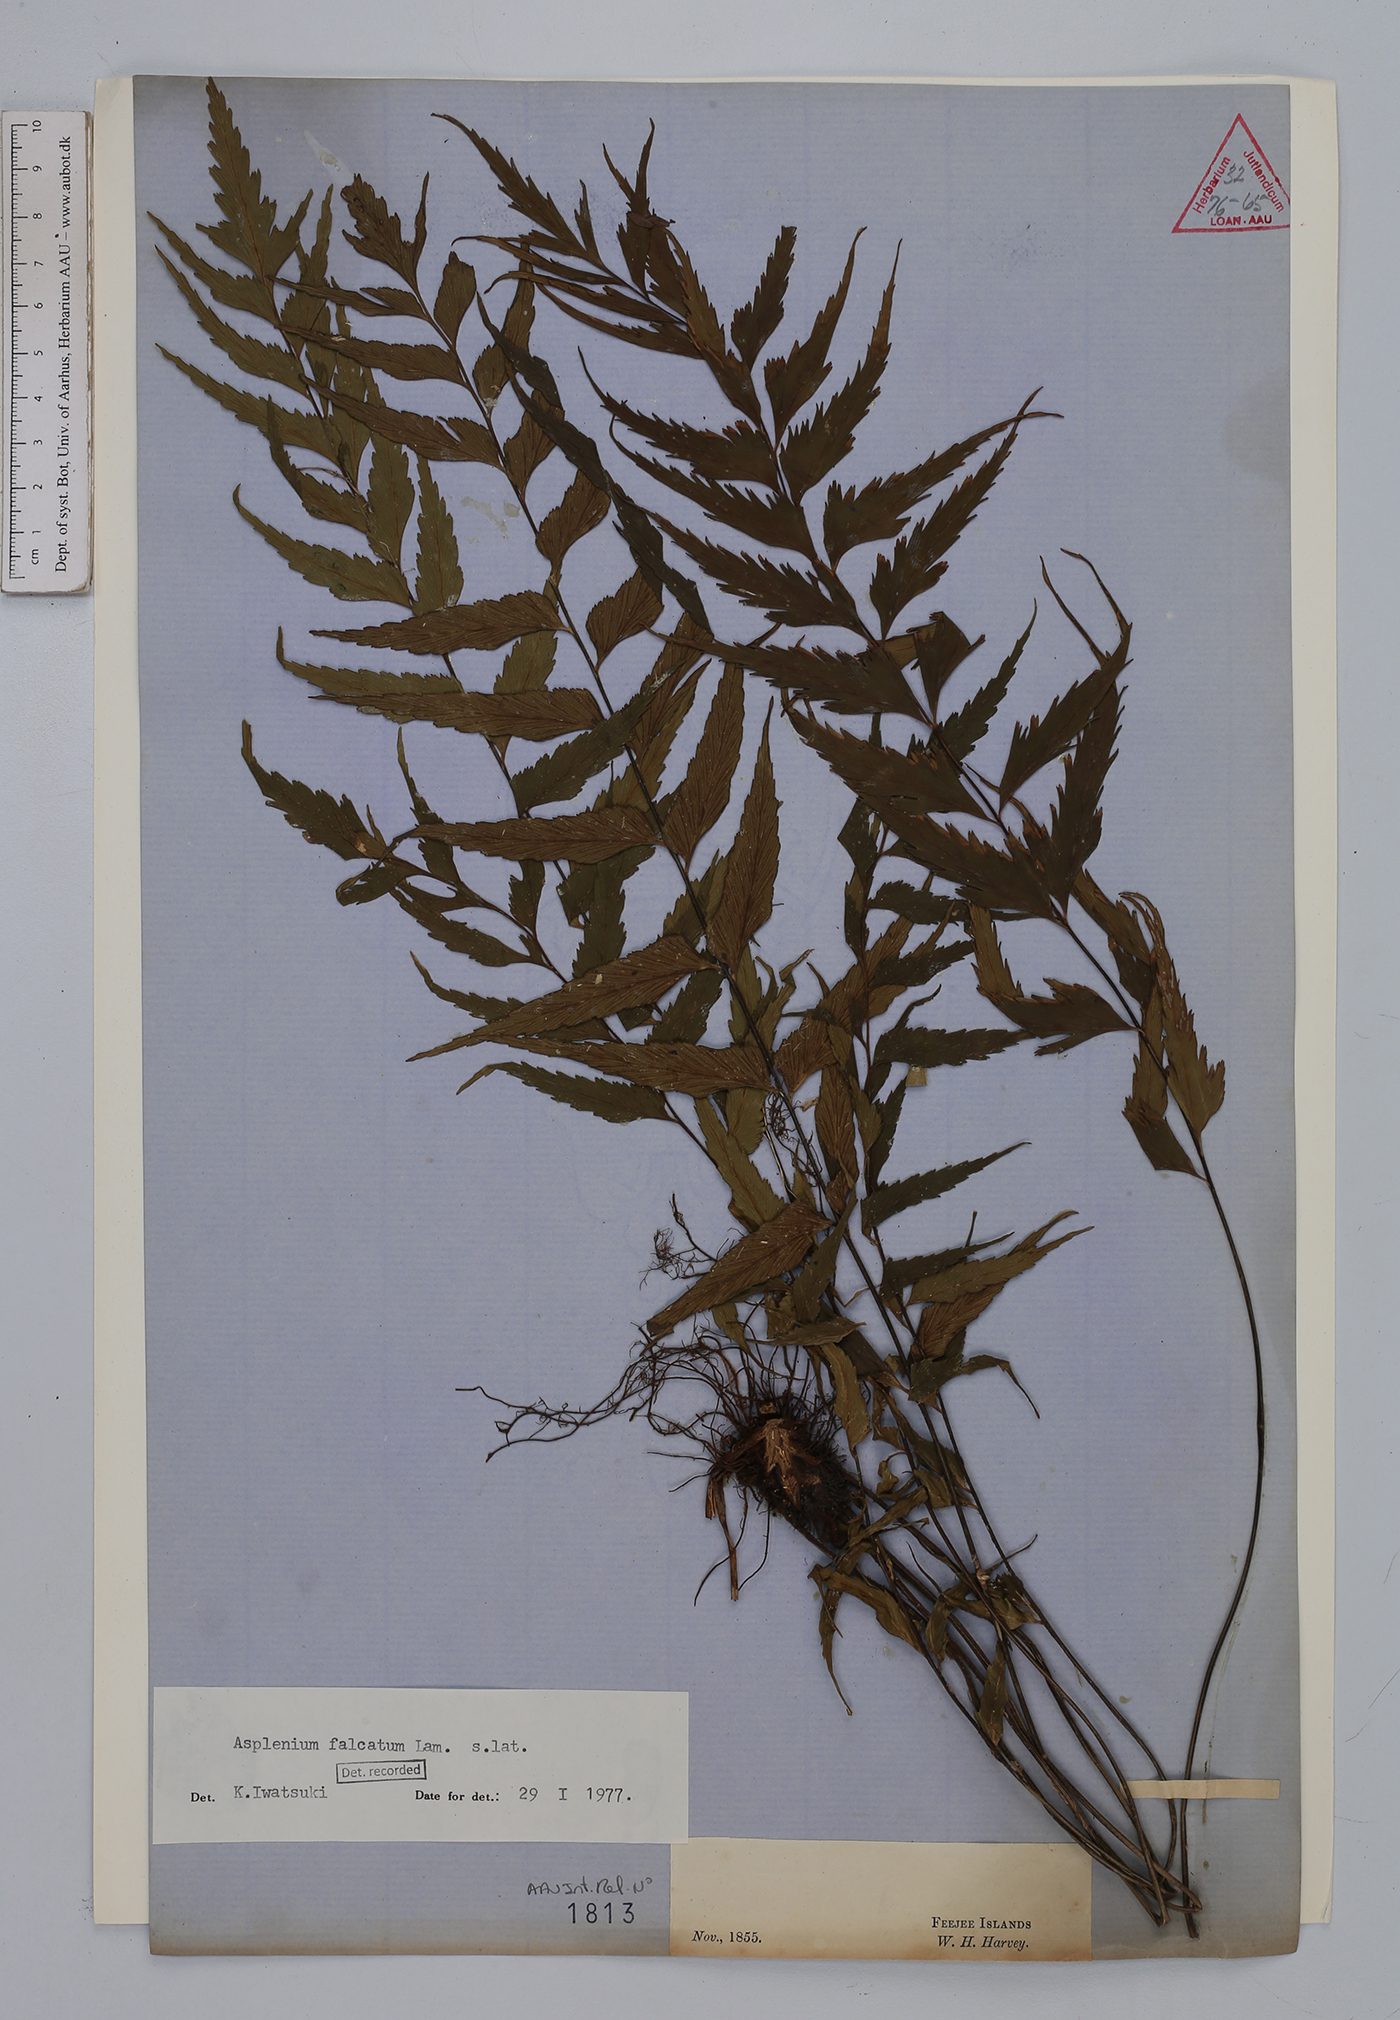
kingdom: Plantae
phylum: Tracheophyta
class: Polypodiopsida
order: Polypodiales
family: Aspleniaceae
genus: Asplenium
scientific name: Asplenium falcatum
